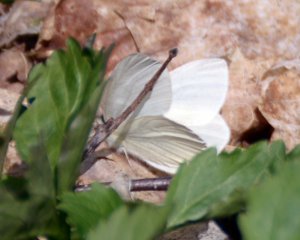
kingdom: Animalia
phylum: Arthropoda
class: Insecta
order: Lepidoptera
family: Pieridae
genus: Pieris
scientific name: Pieris virginiensis
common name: West Virginia White
